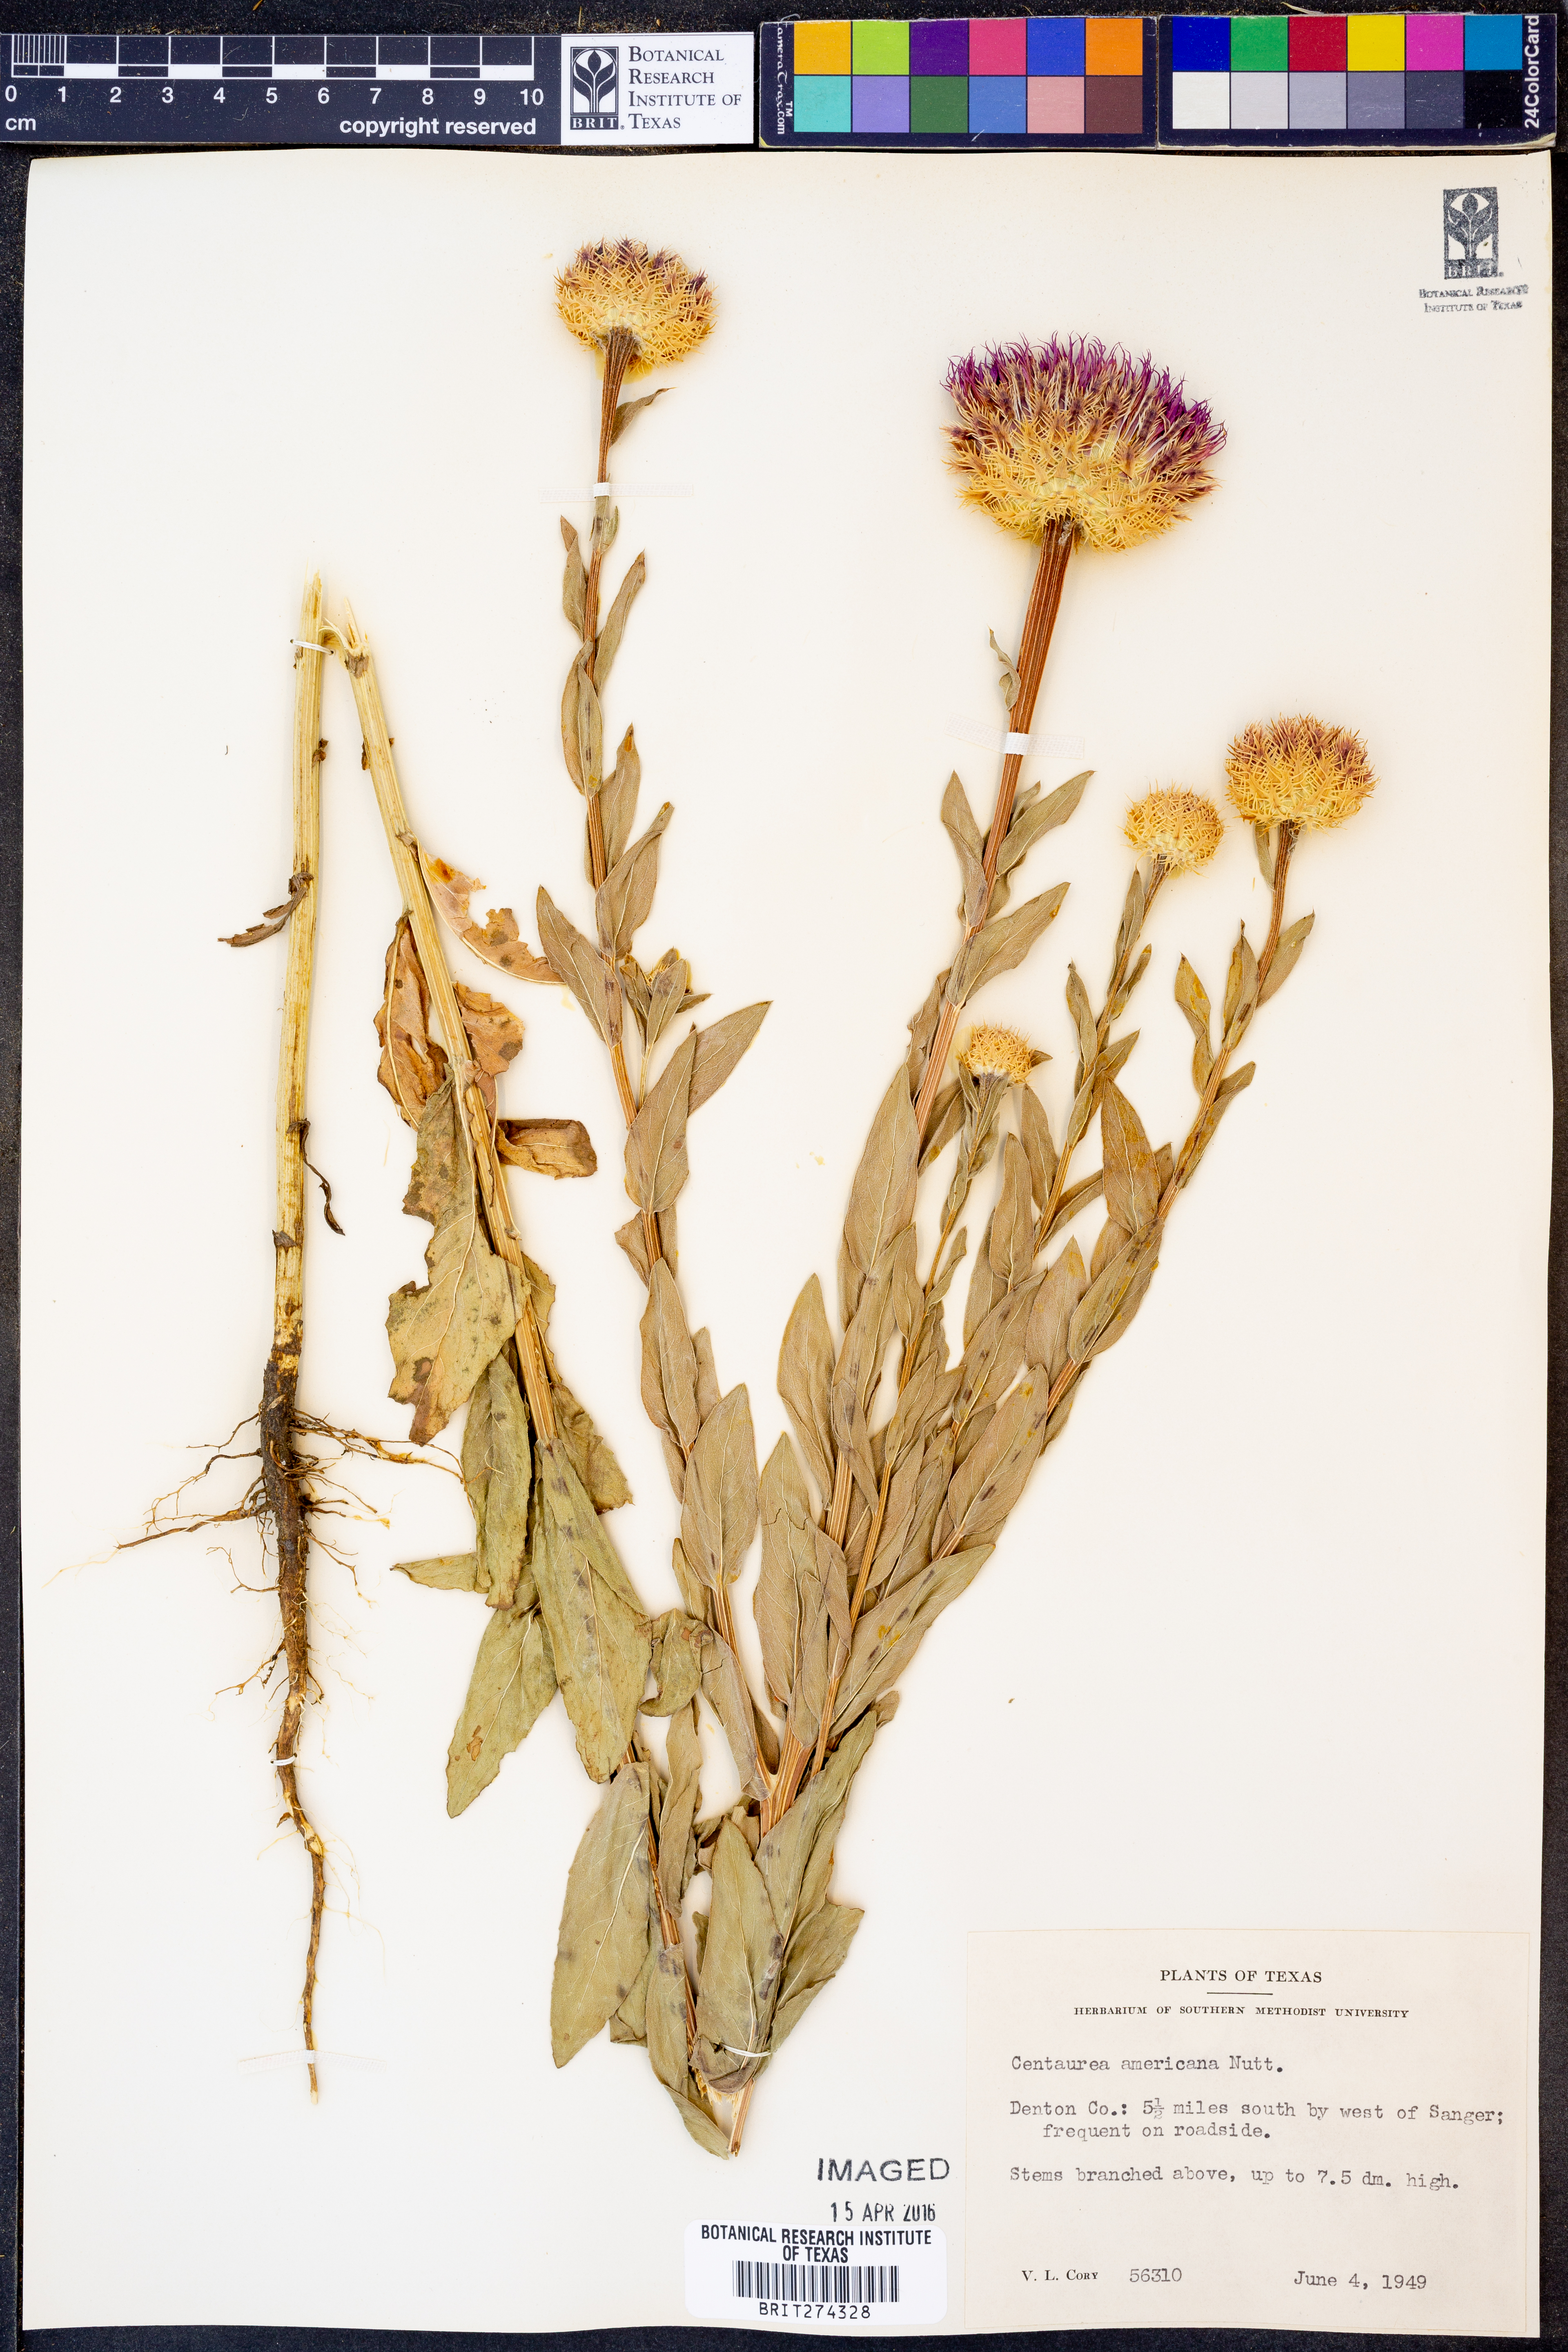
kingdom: Plantae
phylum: Tracheophyta
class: Magnoliopsida
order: Asterales
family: Asteraceae
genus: Plectocephalus
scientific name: Plectocephalus americanus
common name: American basket-flower
